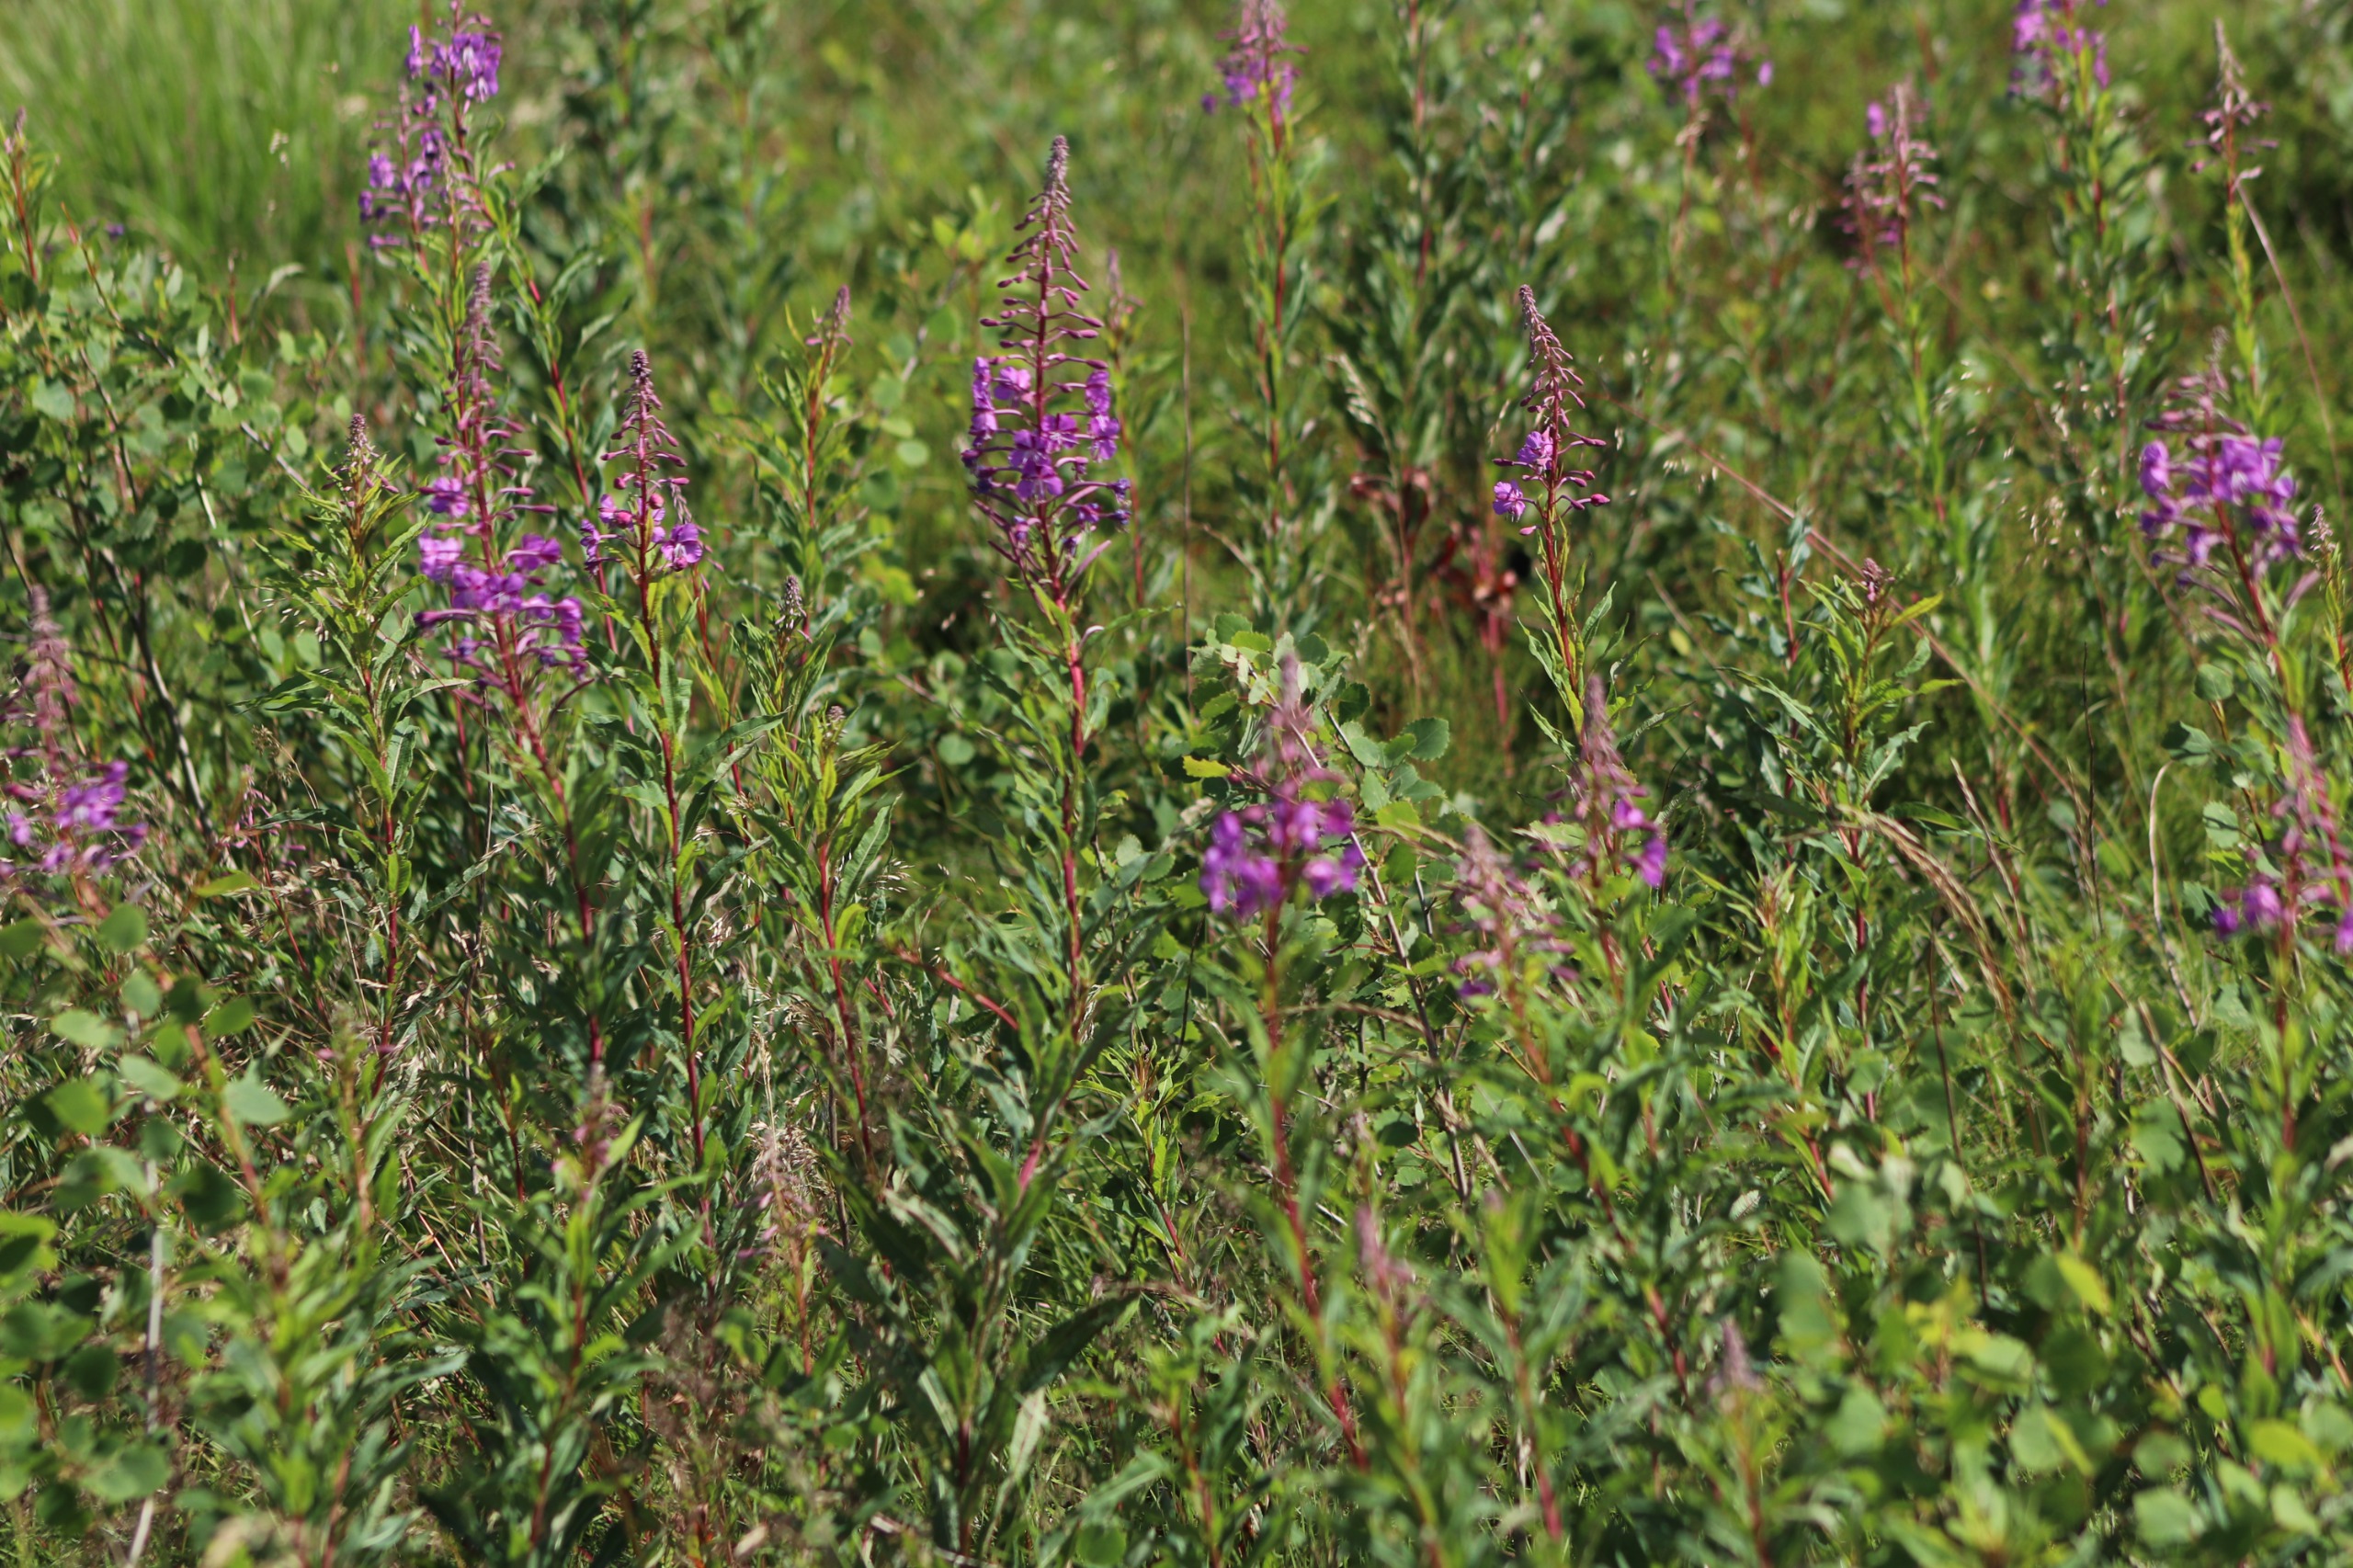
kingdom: Plantae
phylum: Tracheophyta
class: Magnoliopsida
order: Myrtales
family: Onagraceae
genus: Chamaenerion
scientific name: Chamaenerion angustifolium
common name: Gederams
